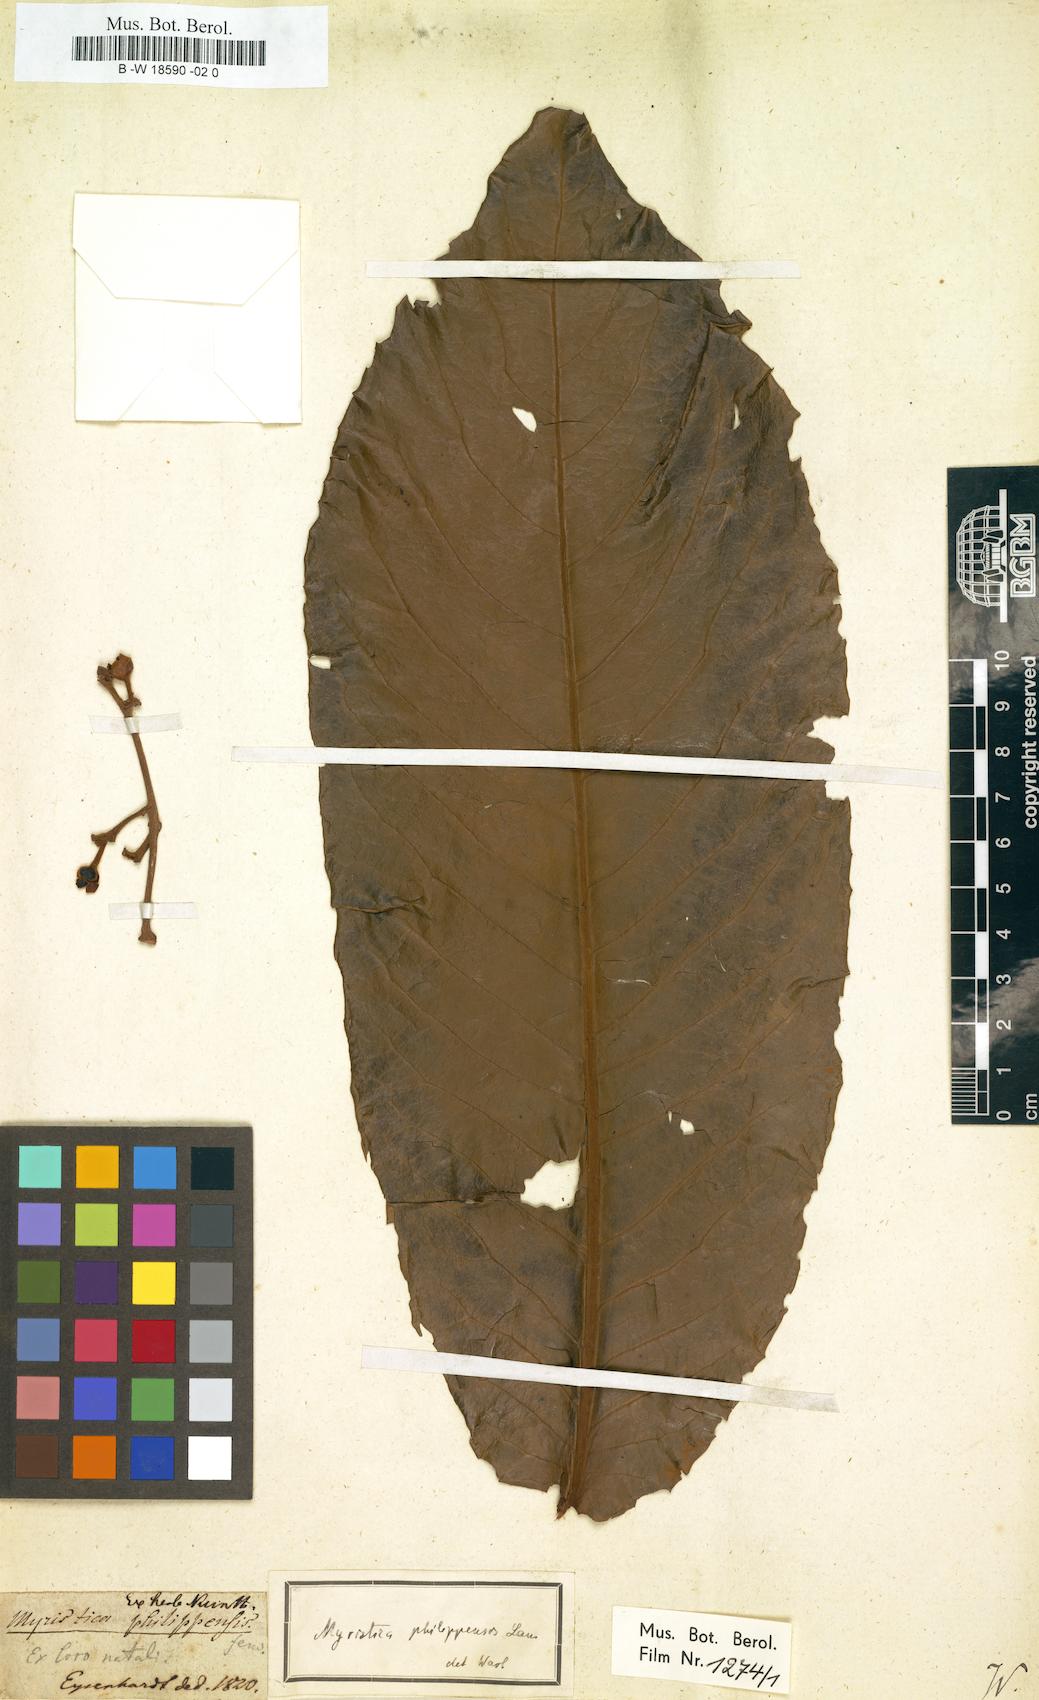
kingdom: Plantae
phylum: Tracheophyta
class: Magnoliopsida
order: Magnoliales
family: Myristicaceae
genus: Myristica
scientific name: Myristica philippensis
